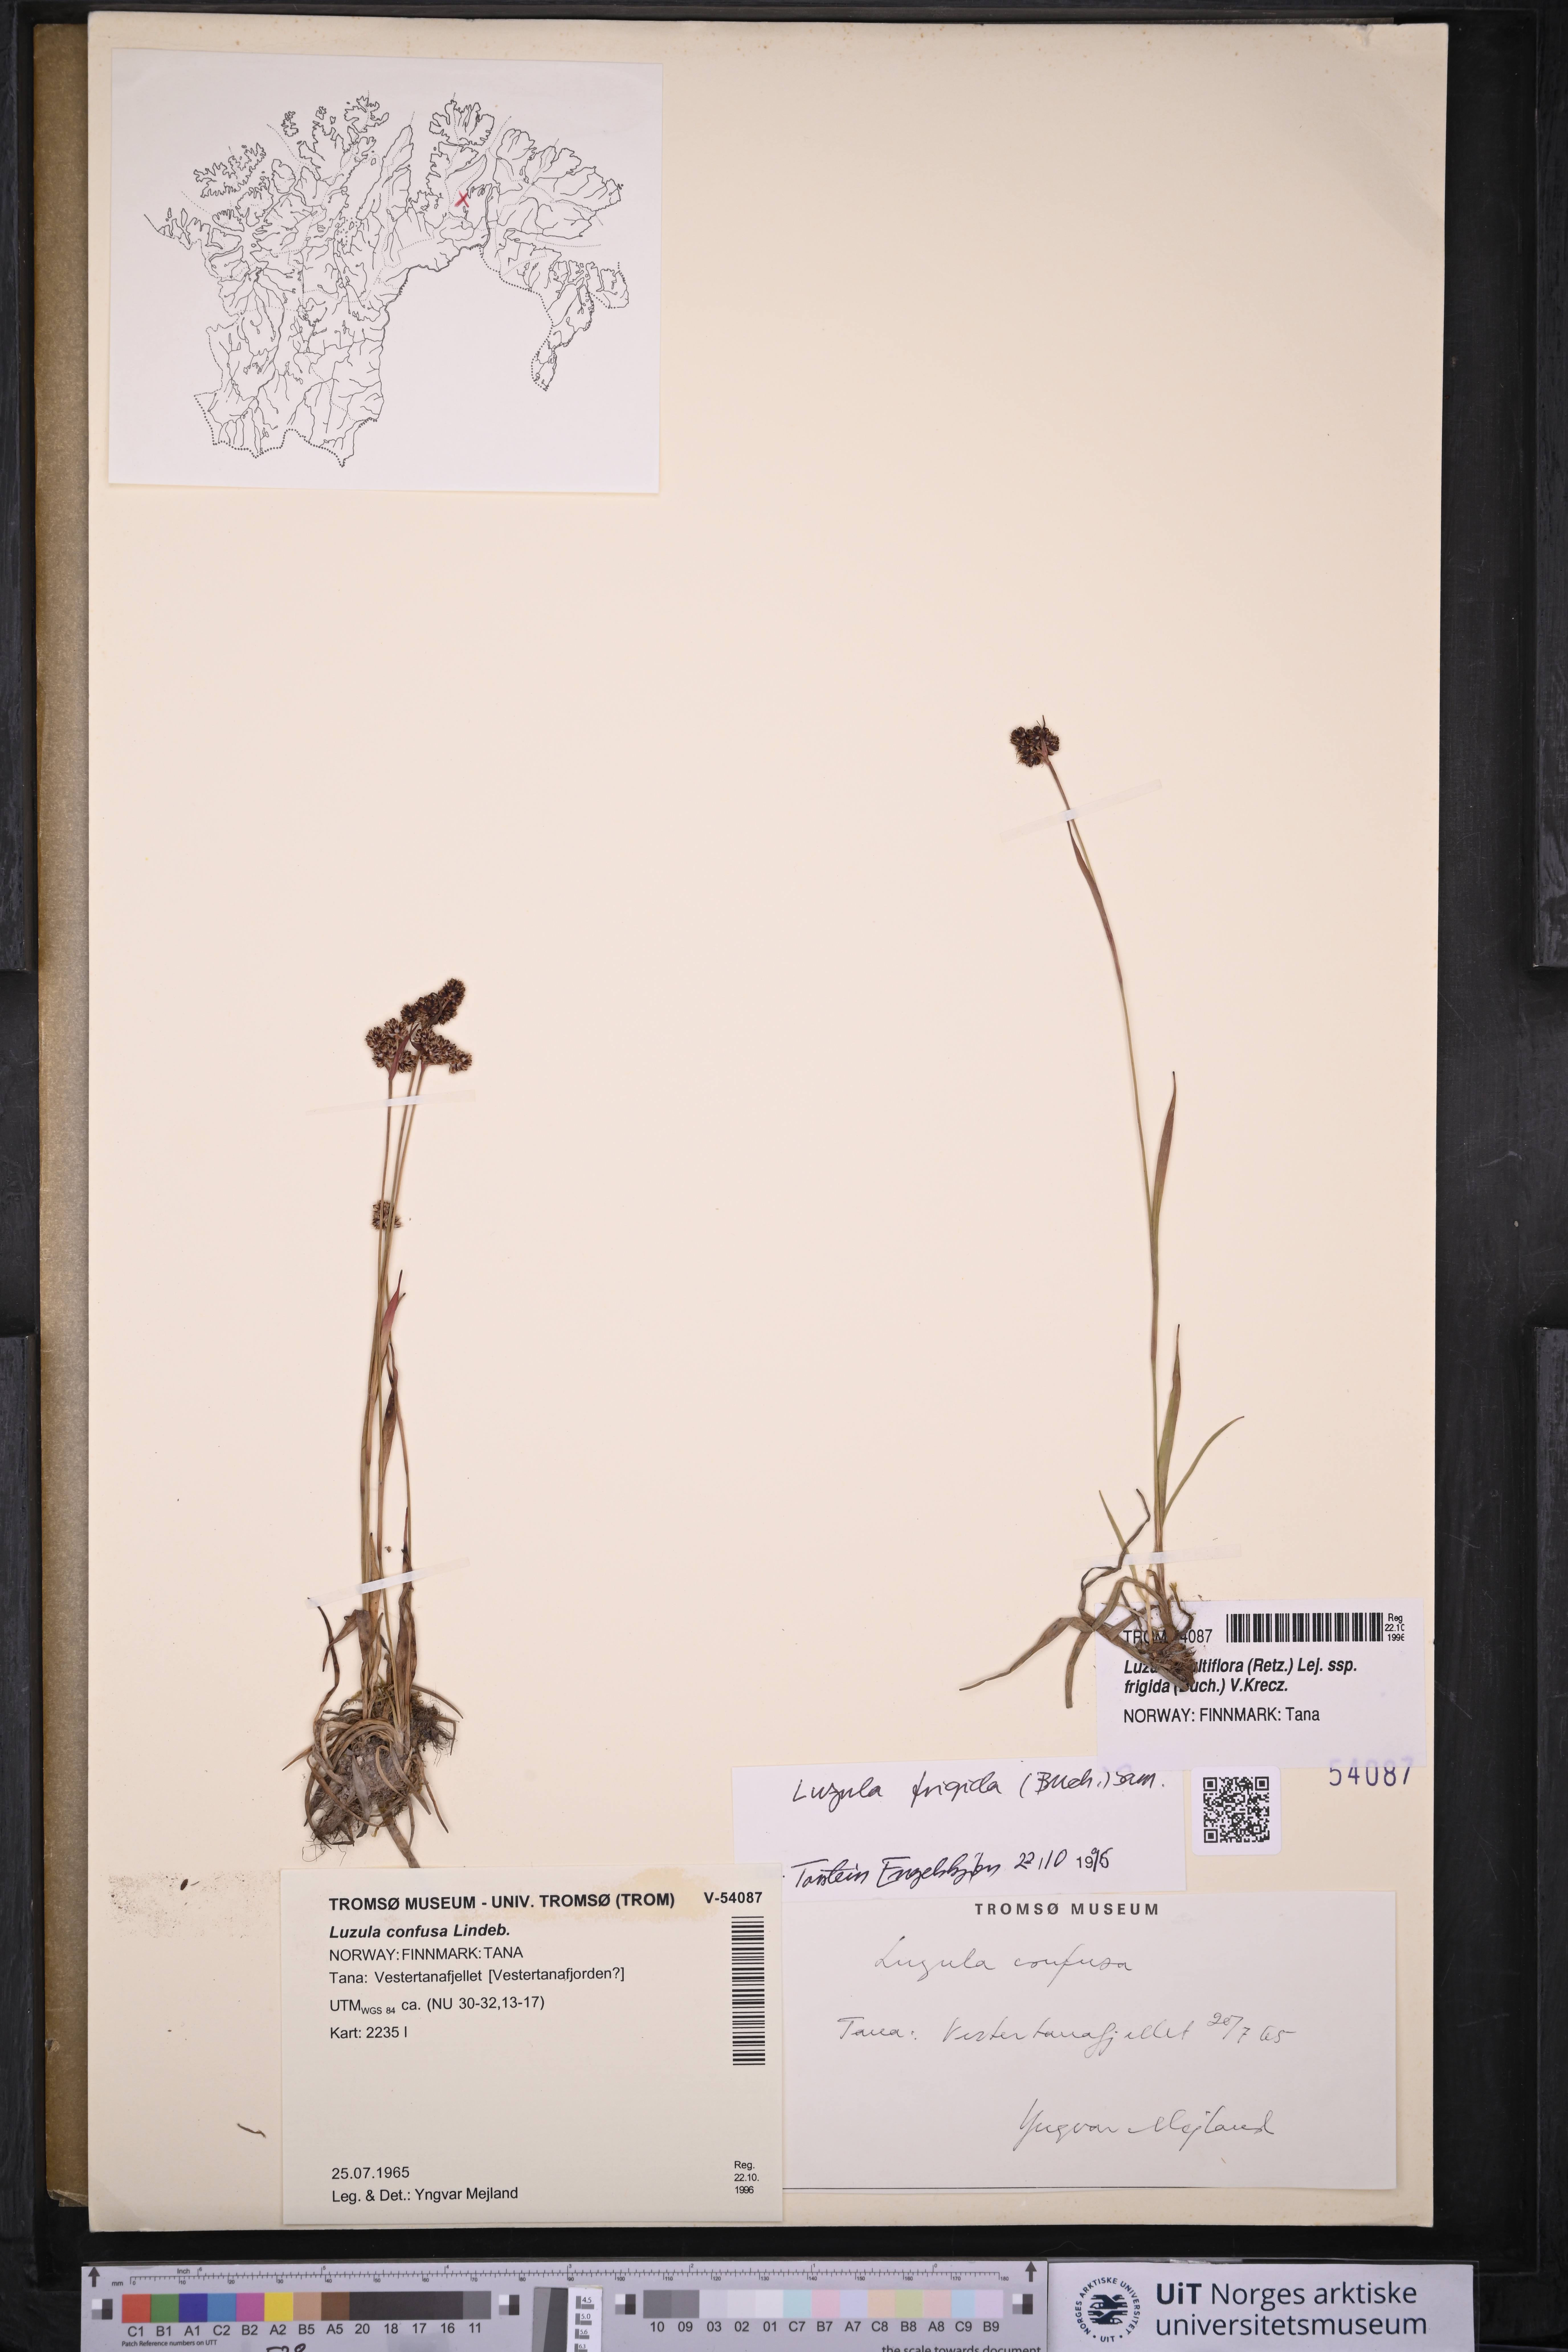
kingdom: Plantae
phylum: Tracheophyta
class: Liliopsida
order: Poales
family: Juncaceae
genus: Luzula
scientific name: Luzula multiflora
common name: Heath wood-rush
